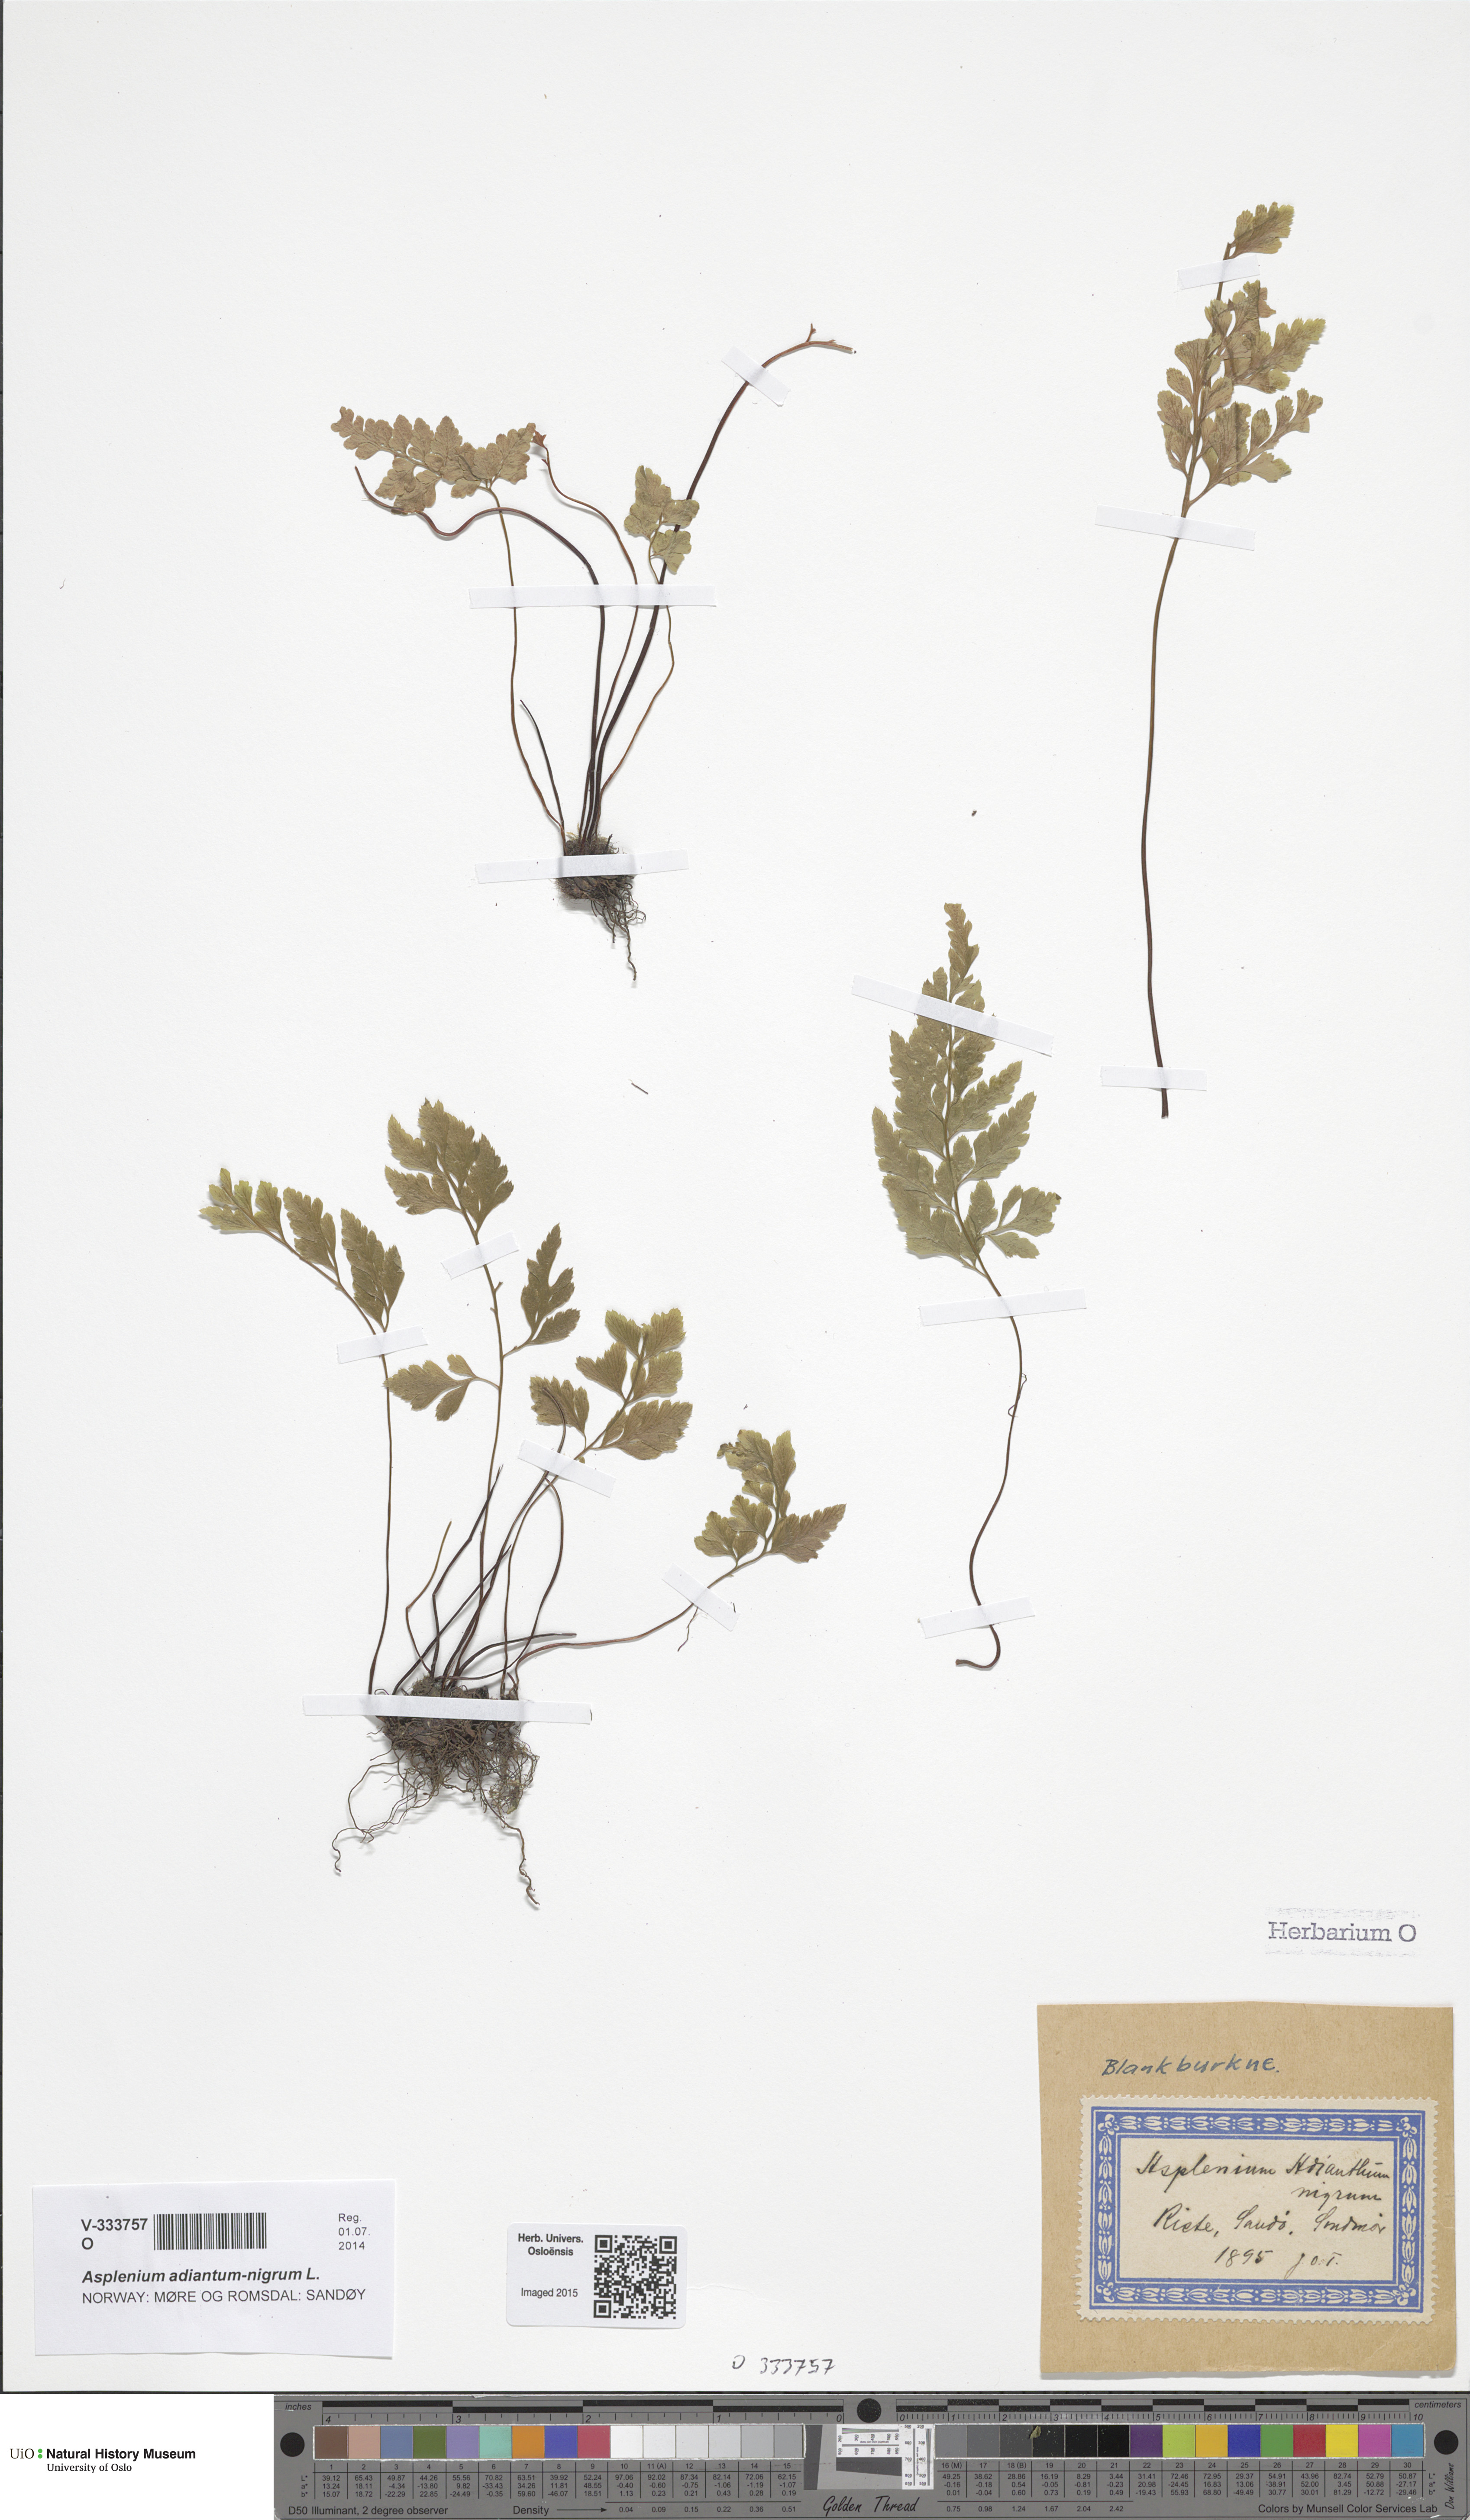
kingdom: Plantae
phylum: Tracheophyta
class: Polypodiopsida
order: Polypodiales
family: Aspleniaceae
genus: Asplenium
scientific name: Asplenium adiantum-nigrum
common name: Black spleenwort
